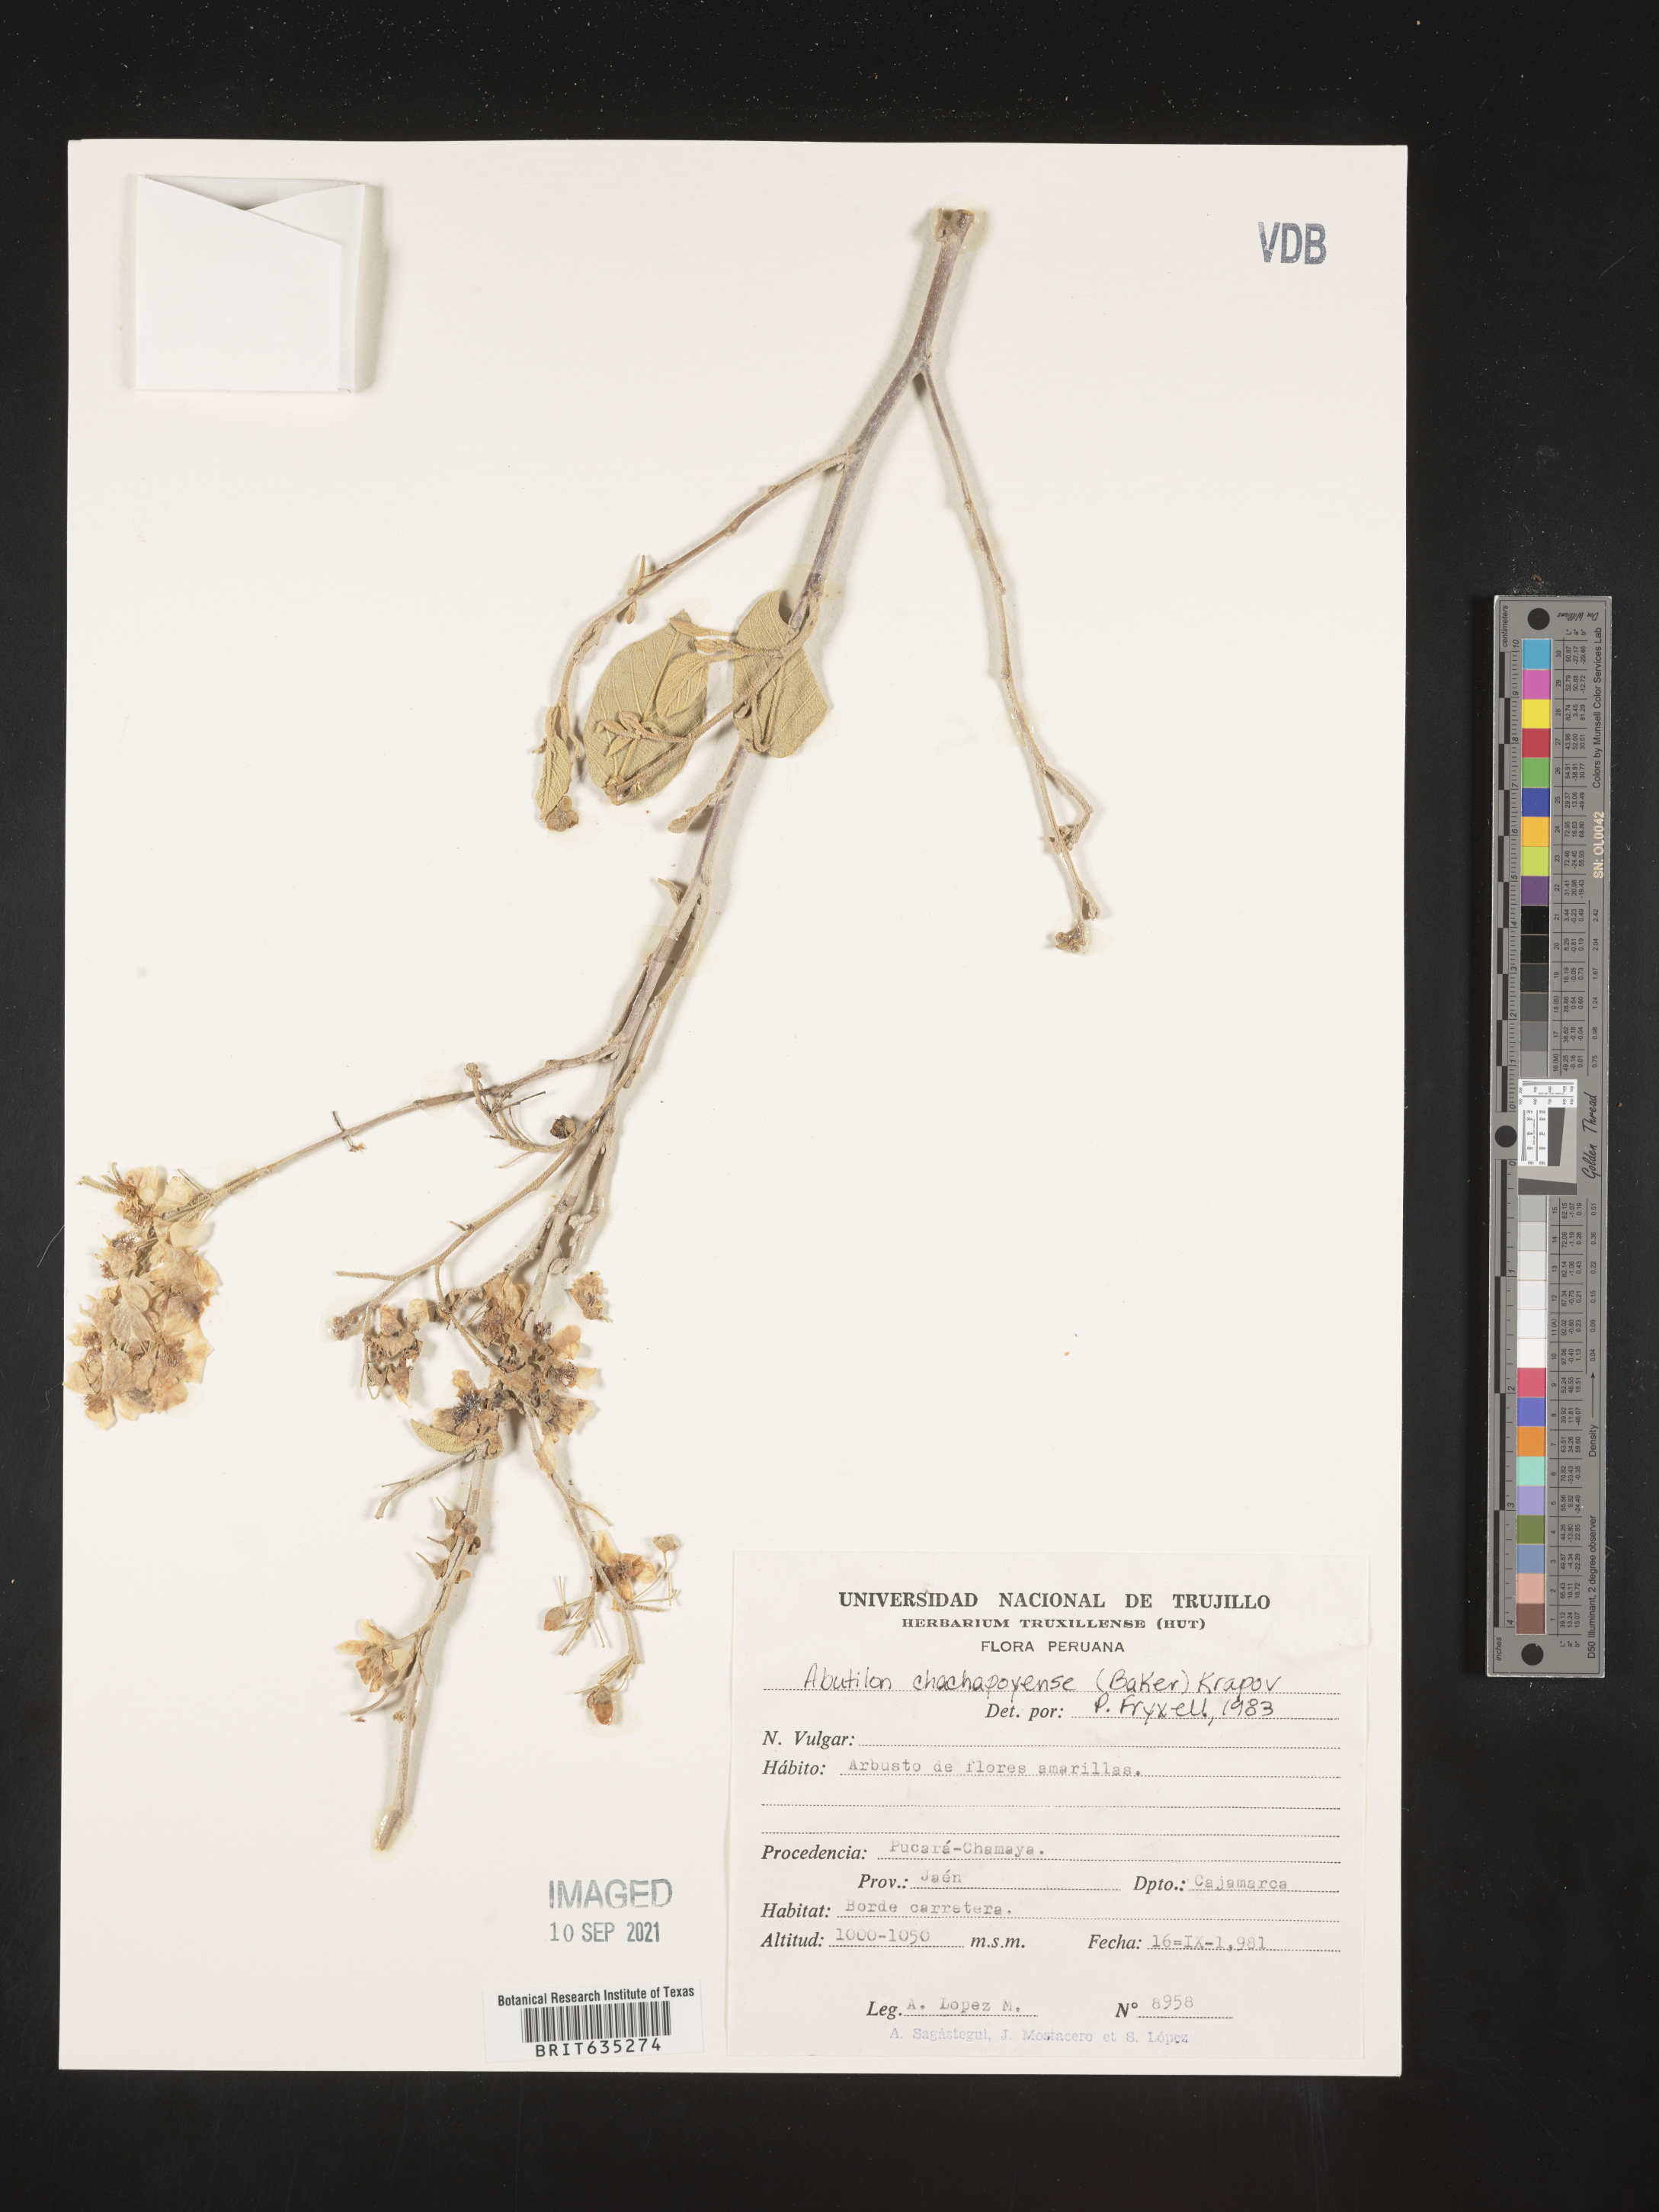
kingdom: Plantae
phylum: Tracheophyta
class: Magnoliopsida
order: Malvales
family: Malvaceae
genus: Abutilon
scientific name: Abutilon
